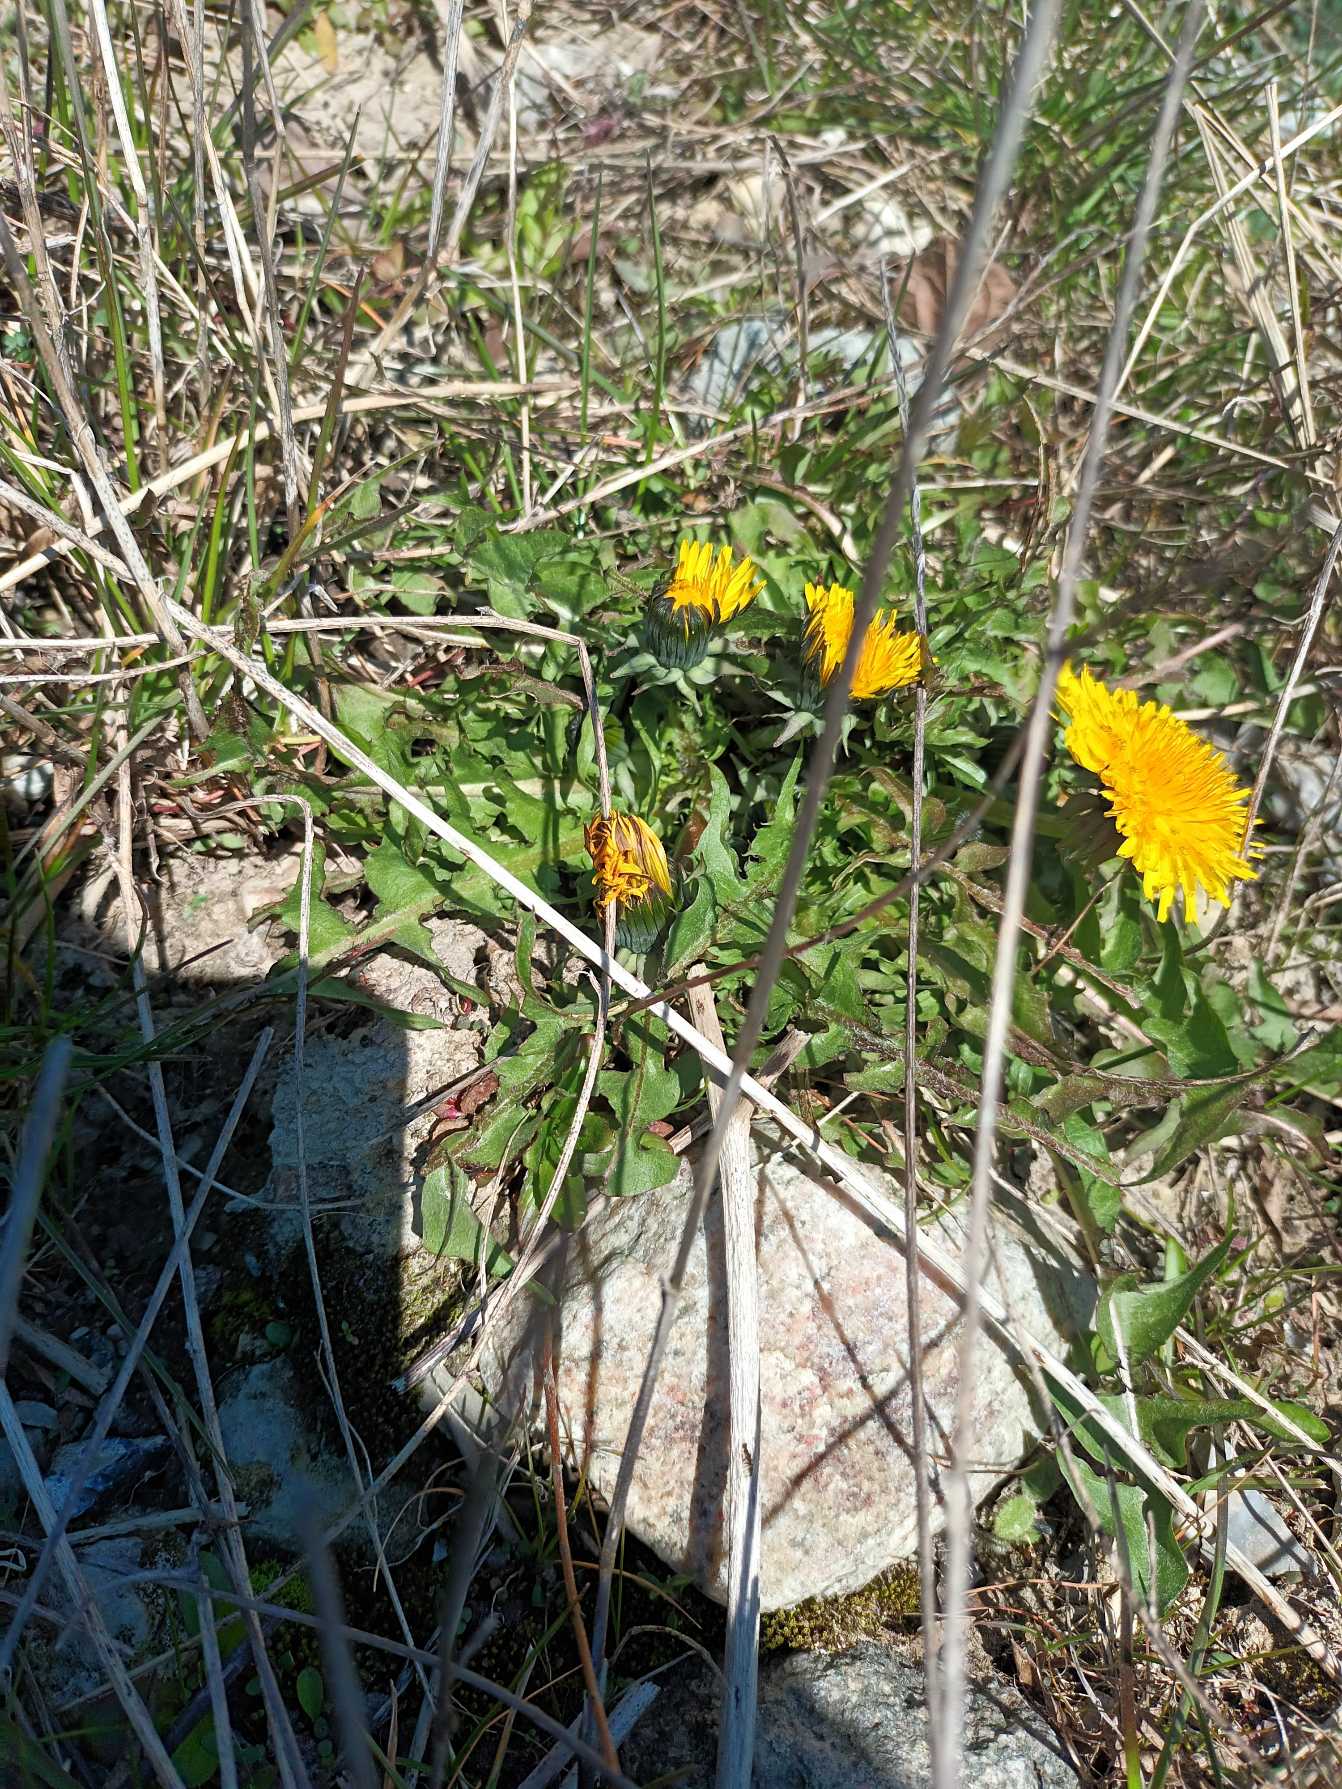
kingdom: Plantae
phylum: Tracheophyta
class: Magnoliopsida
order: Asterales
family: Asteraceae
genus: Taraxacum
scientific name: Taraxacum
